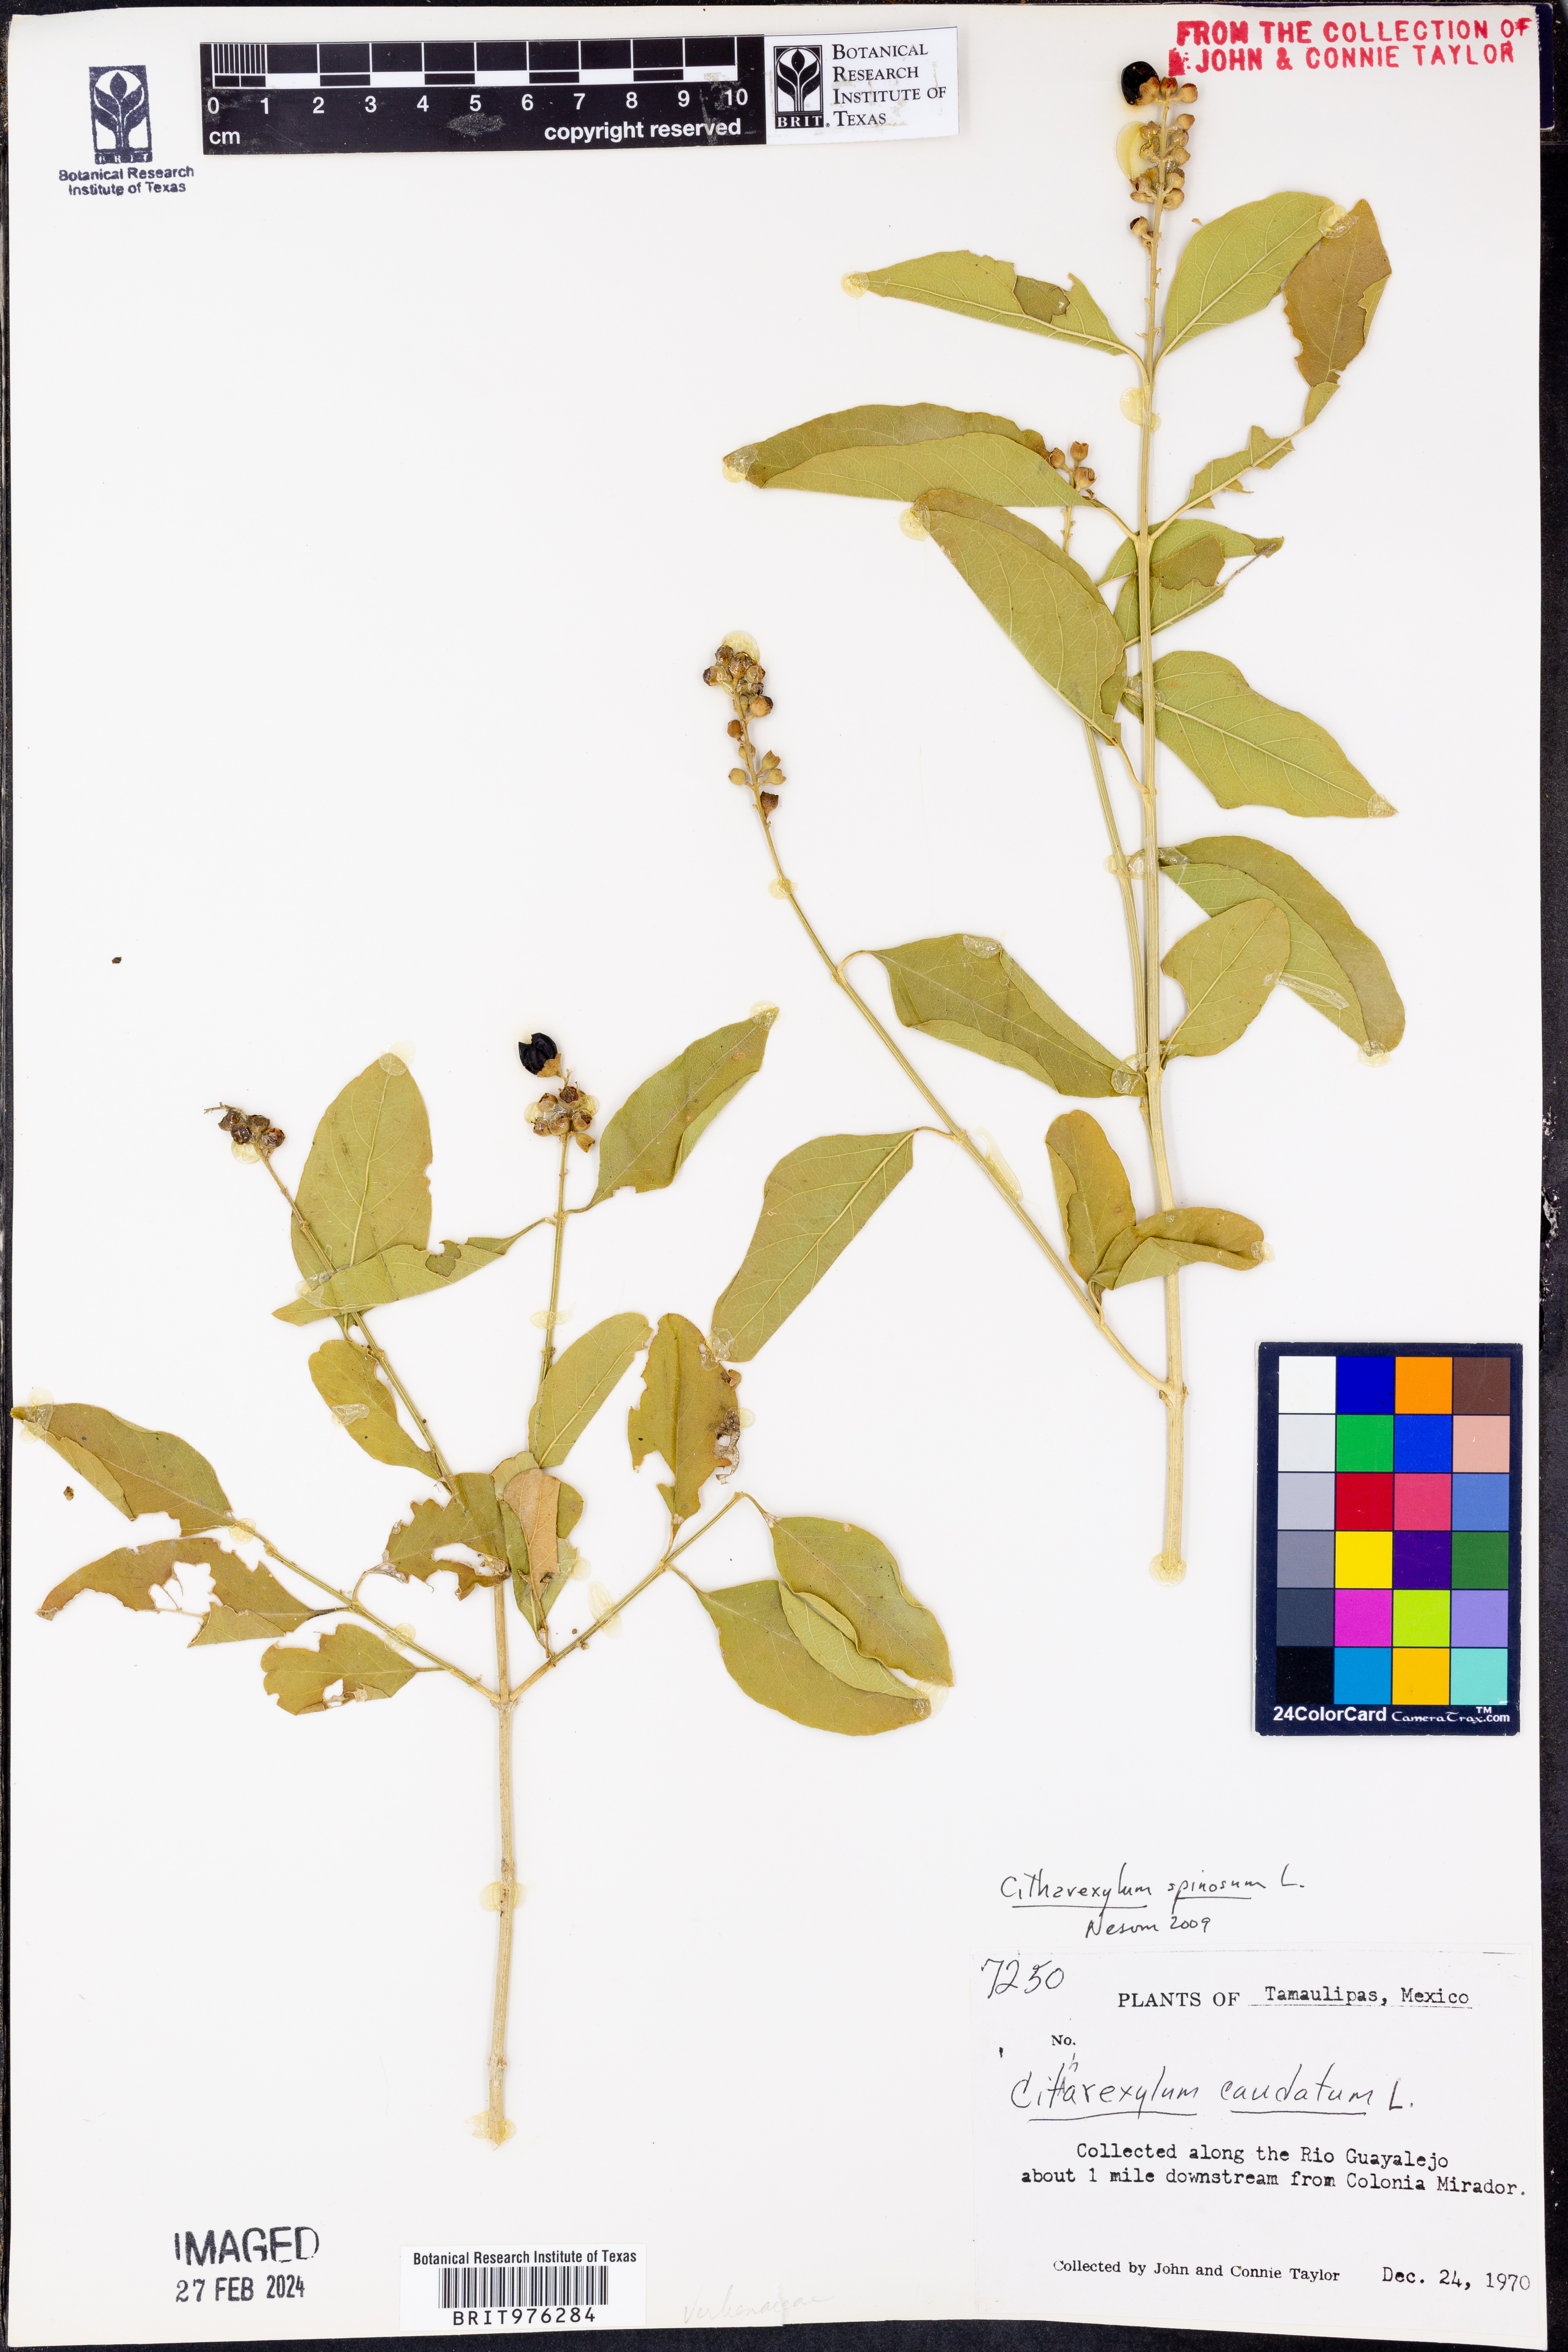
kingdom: Plantae
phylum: Tracheophyta
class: Magnoliopsida
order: Lamiales
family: Verbenaceae
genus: Citharexylum
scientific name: Citharexylum
